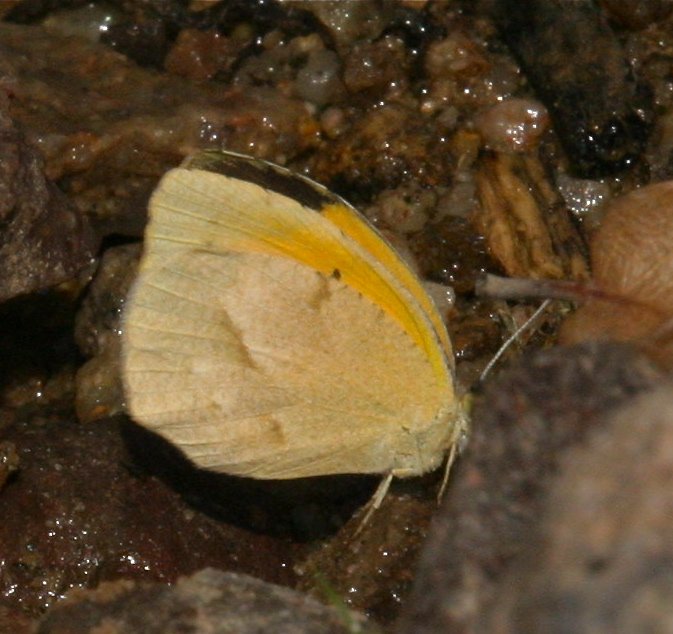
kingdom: Animalia
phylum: Arthropoda
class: Insecta
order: Lepidoptera
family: Pieridae
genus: Abaeis
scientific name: Abaeis nicippe
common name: Sleepy Orange
